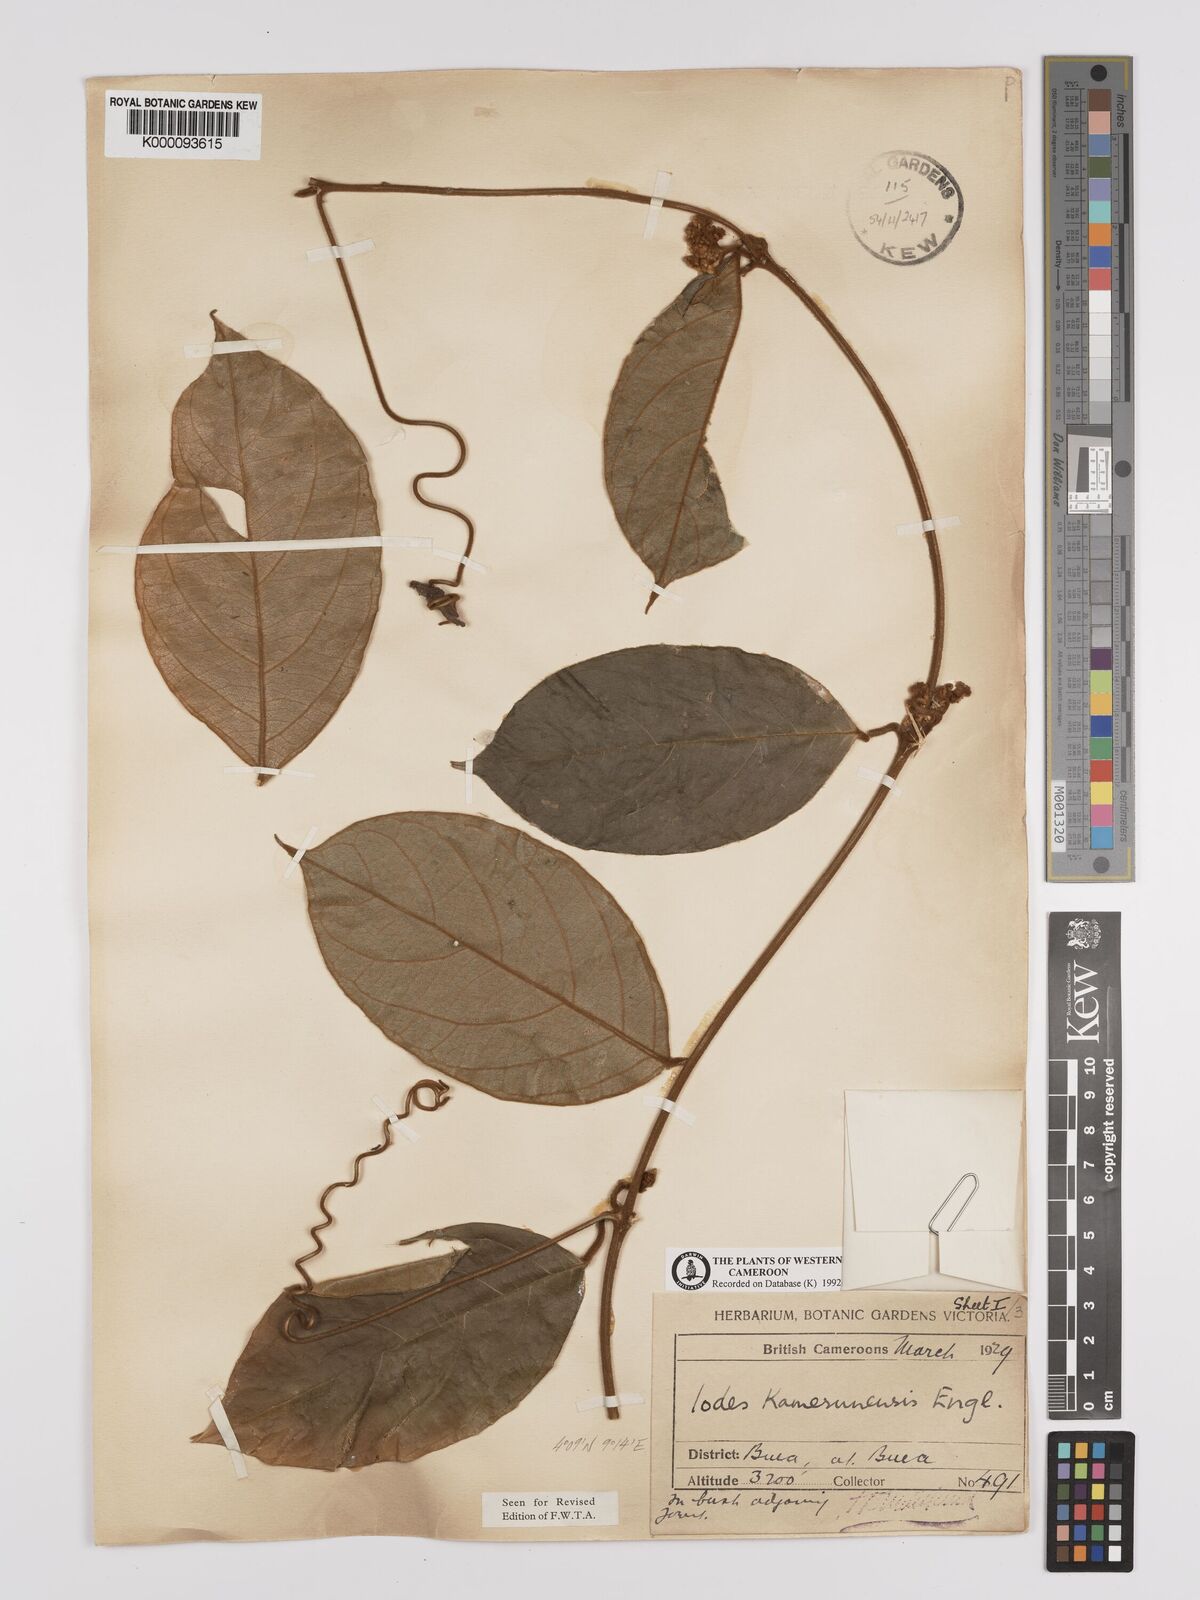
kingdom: Plantae
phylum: Tracheophyta
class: Magnoliopsida
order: Icacinales
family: Icacinaceae
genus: Iodes
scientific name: Iodes kamerunensis
